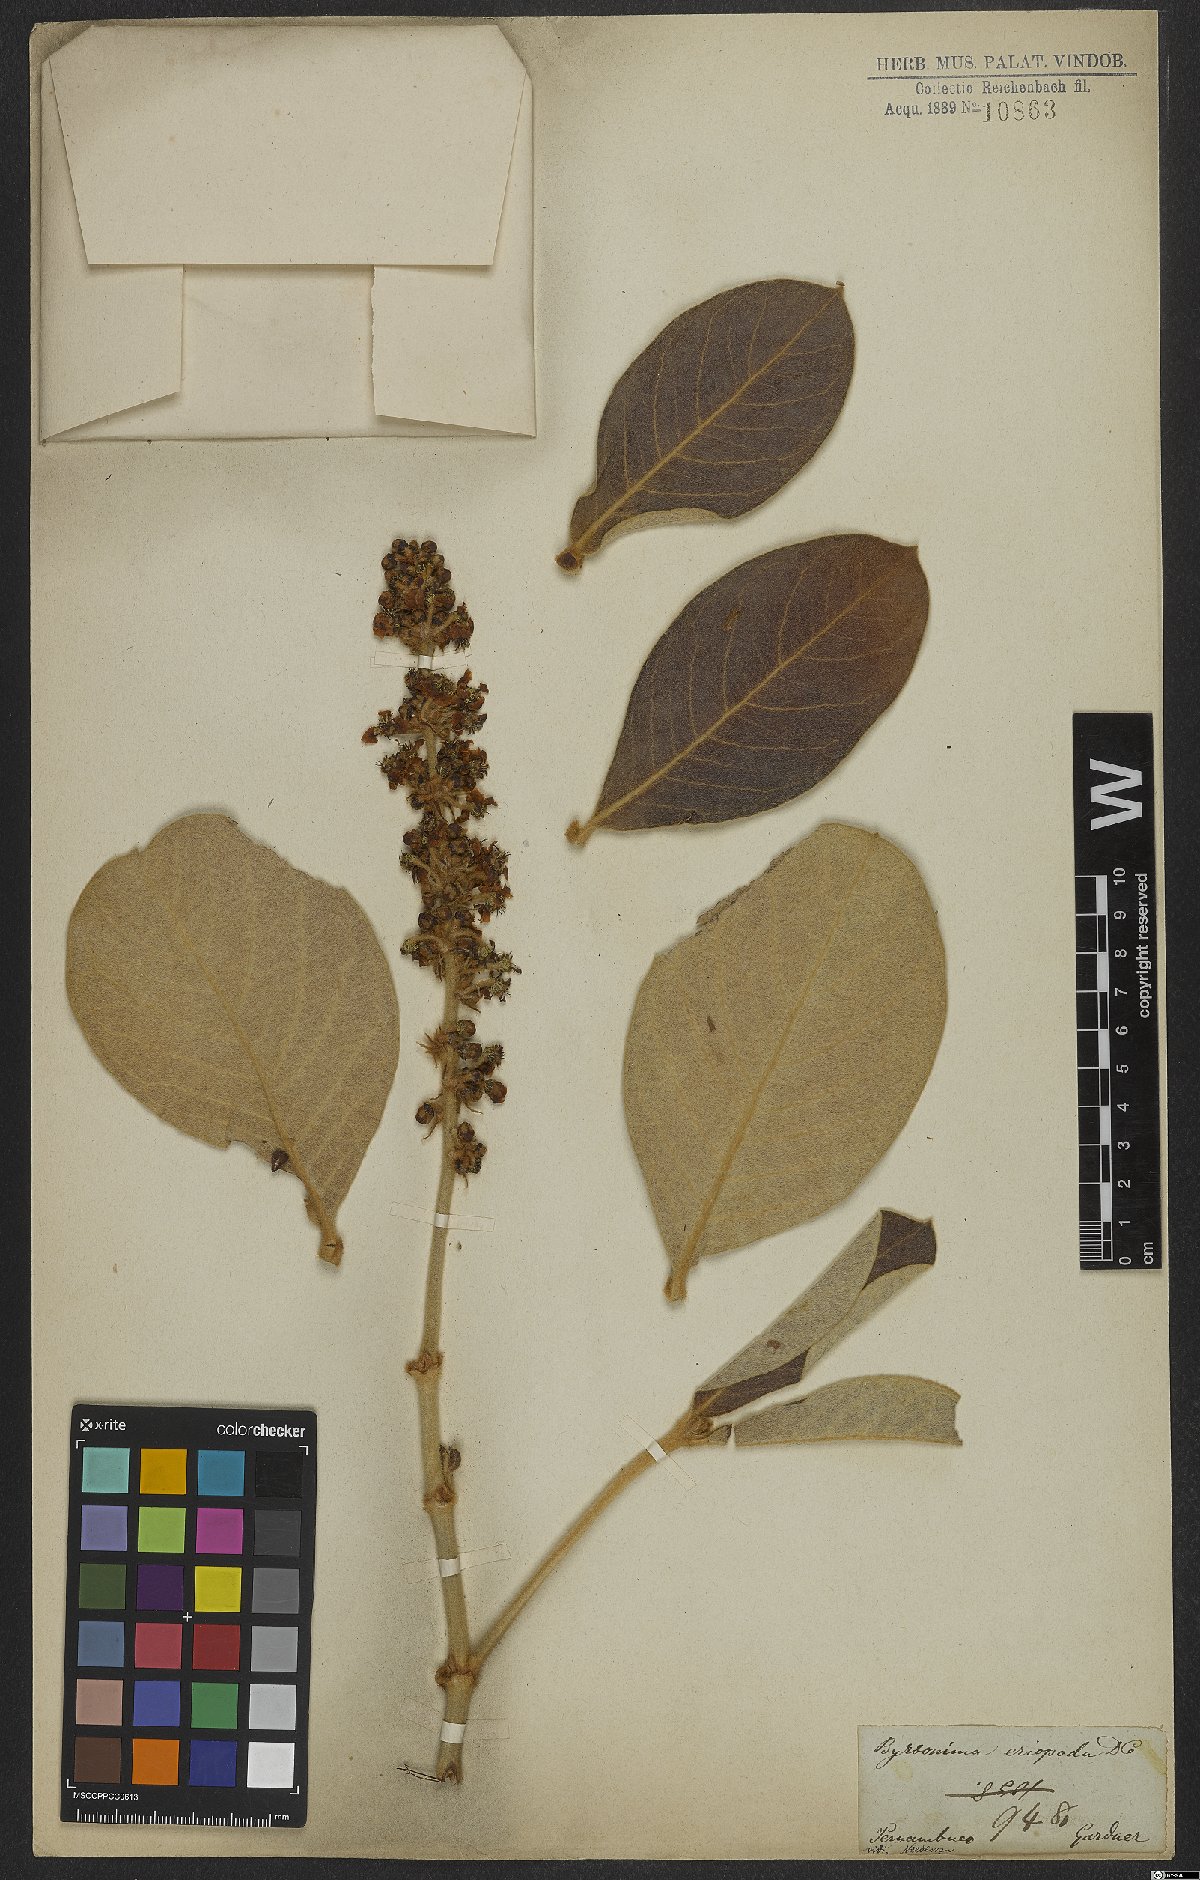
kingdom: Plantae
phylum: Tracheophyta
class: Magnoliopsida
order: Malpighiales
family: Malpighiaceae
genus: Byrsonima
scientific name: Byrsonima eriopoda
